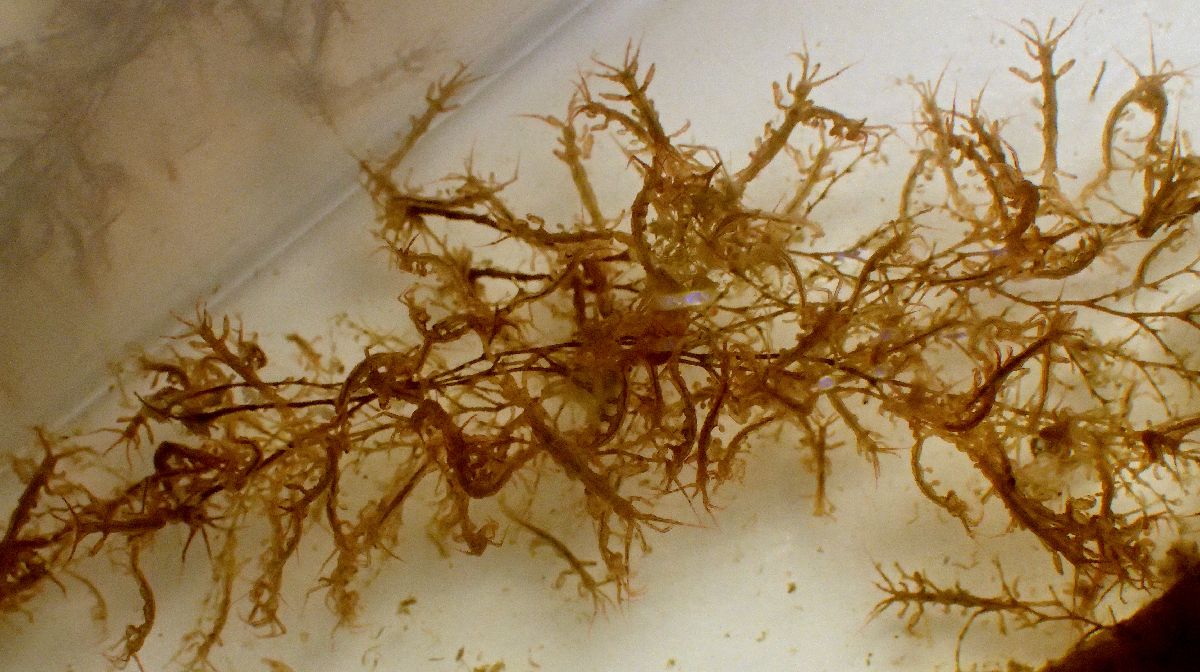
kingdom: Animalia
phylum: Arthropoda
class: Malacostraca
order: Amphipoda
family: Caprellidae
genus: Caprella
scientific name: Caprella septentrionalis
